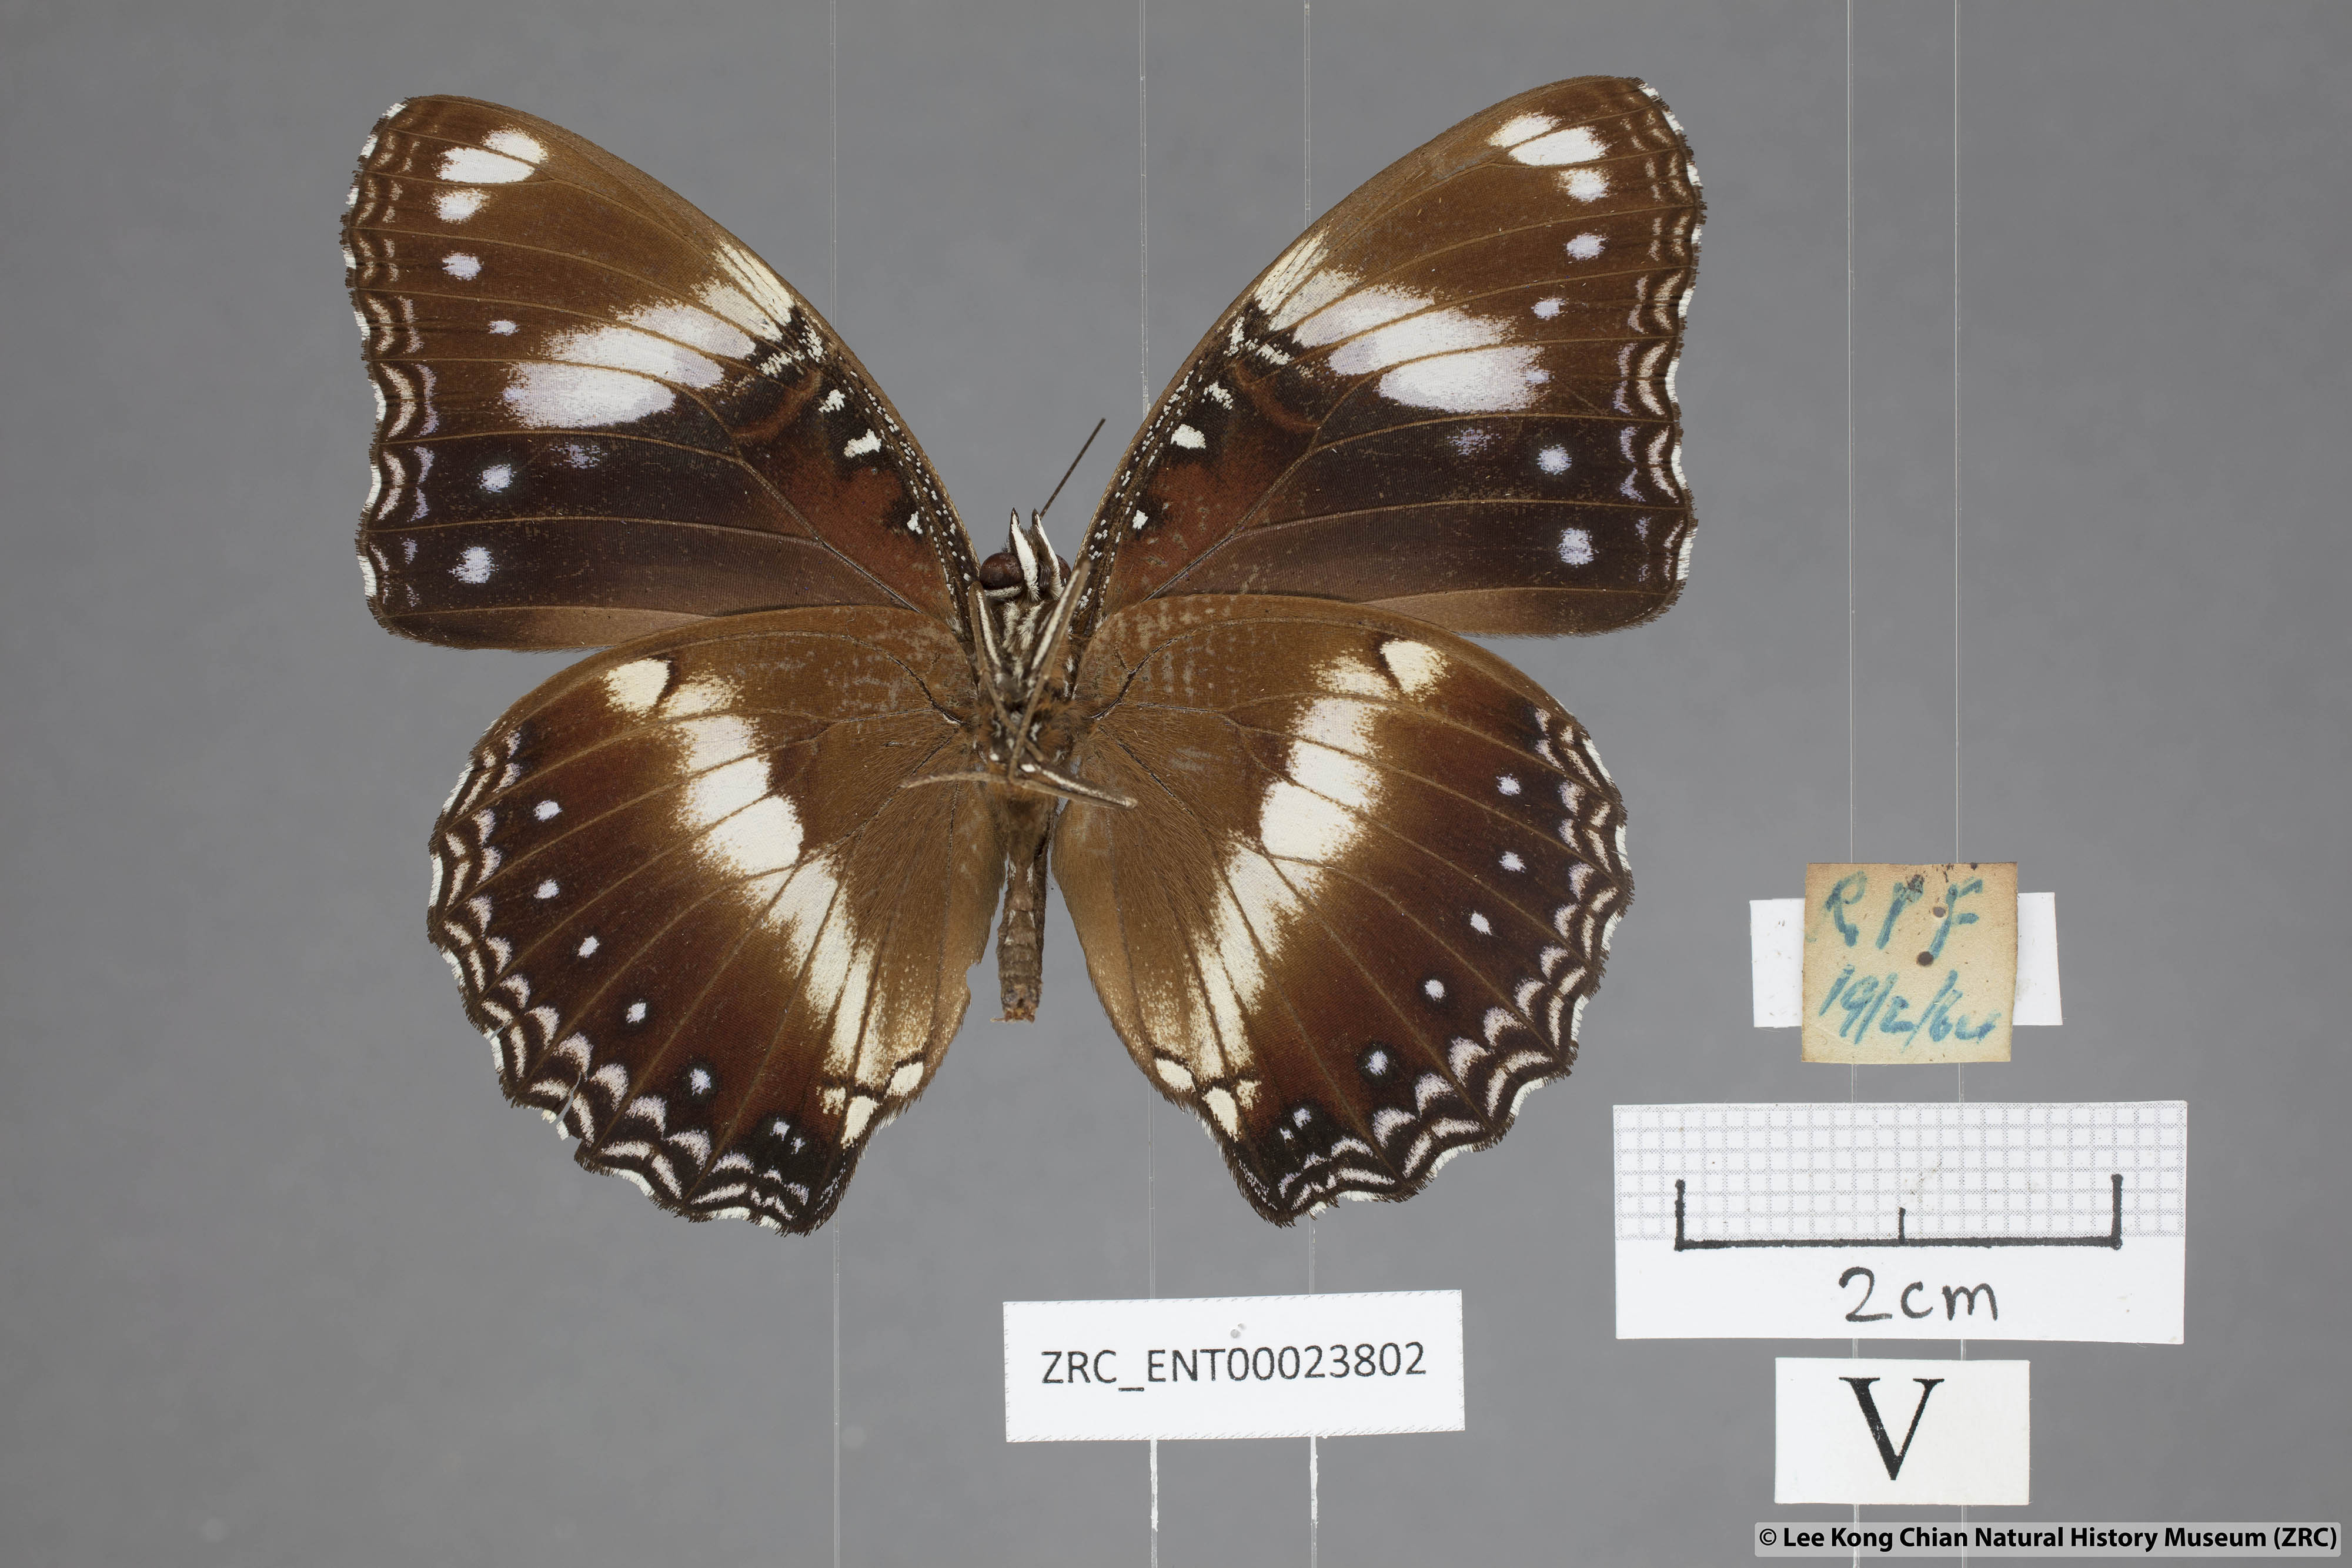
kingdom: Animalia
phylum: Arthropoda
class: Insecta
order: Lepidoptera
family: Nymphalidae
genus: Hypolimnas
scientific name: Hypolimnas bolina
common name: Great eggfly
